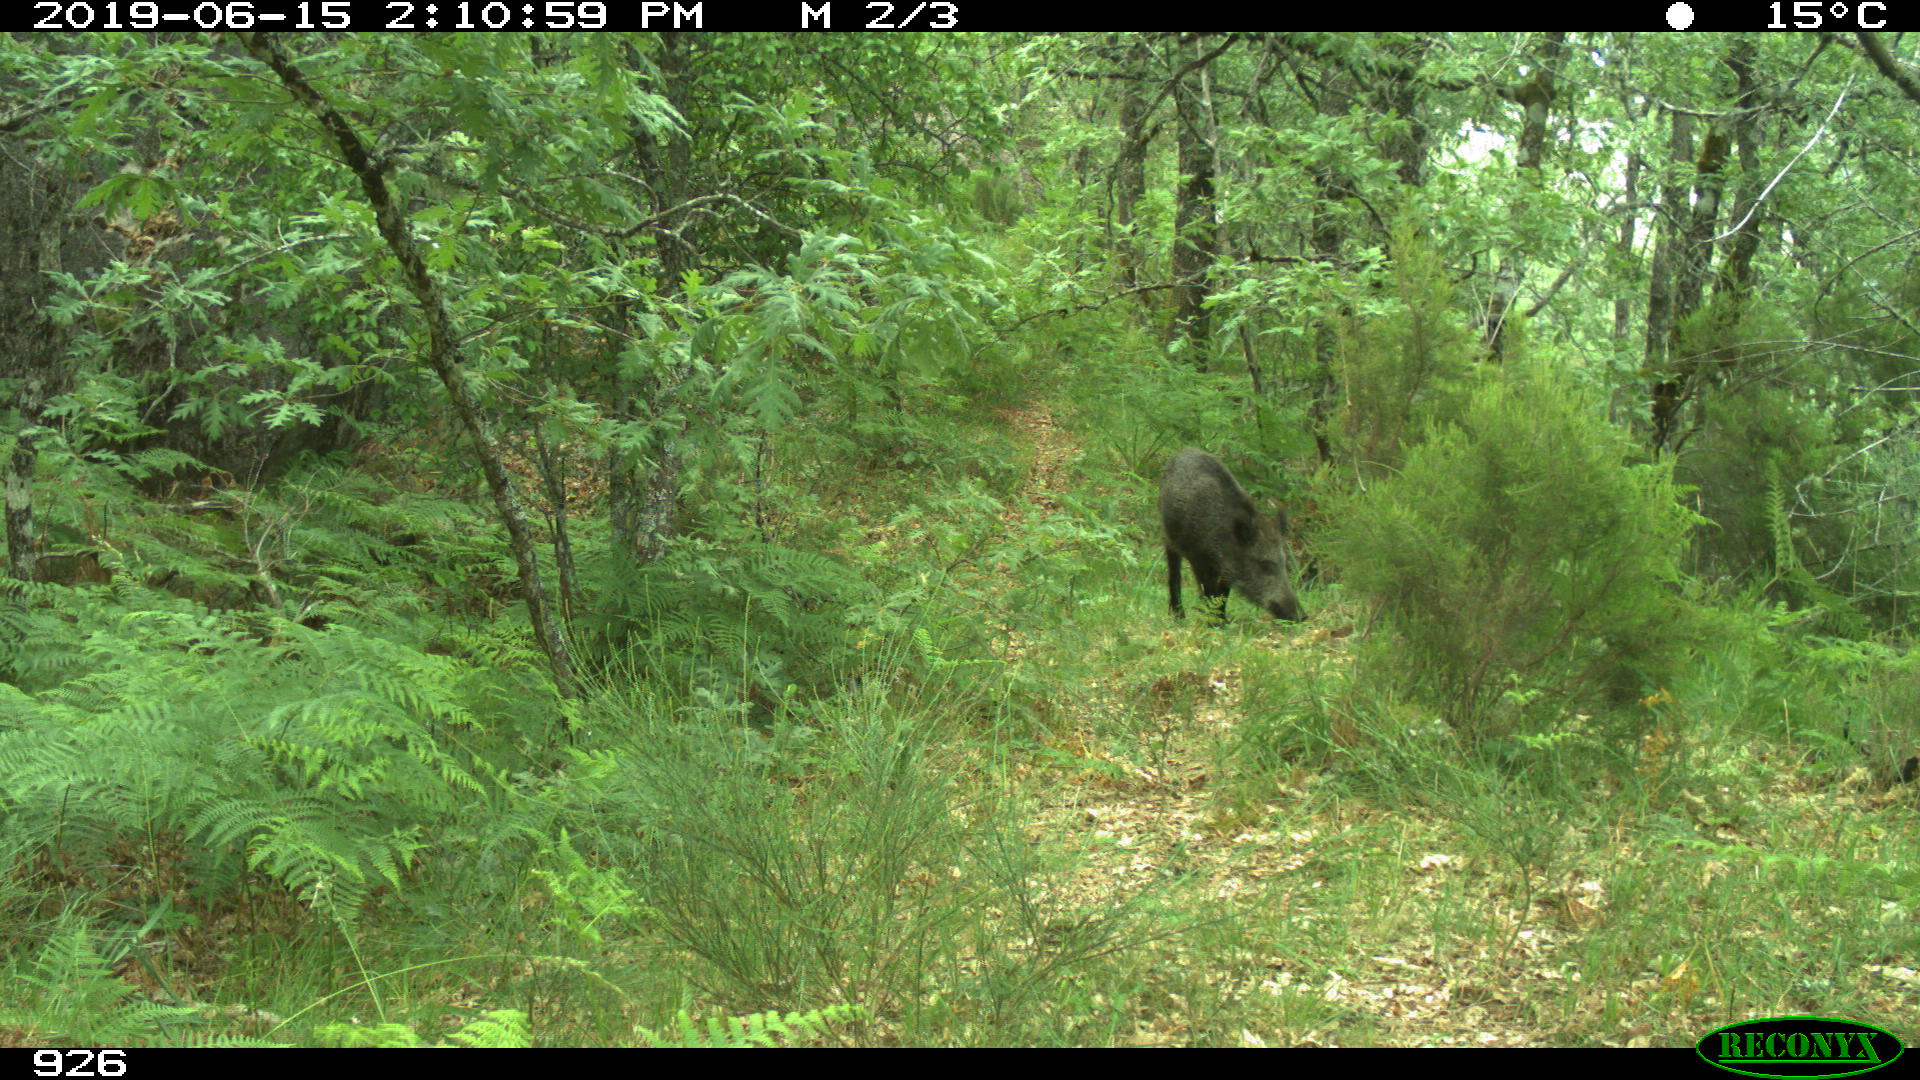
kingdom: Animalia
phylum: Chordata
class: Mammalia
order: Artiodactyla
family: Suidae
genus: Sus
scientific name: Sus scrofa
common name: Wild boar
